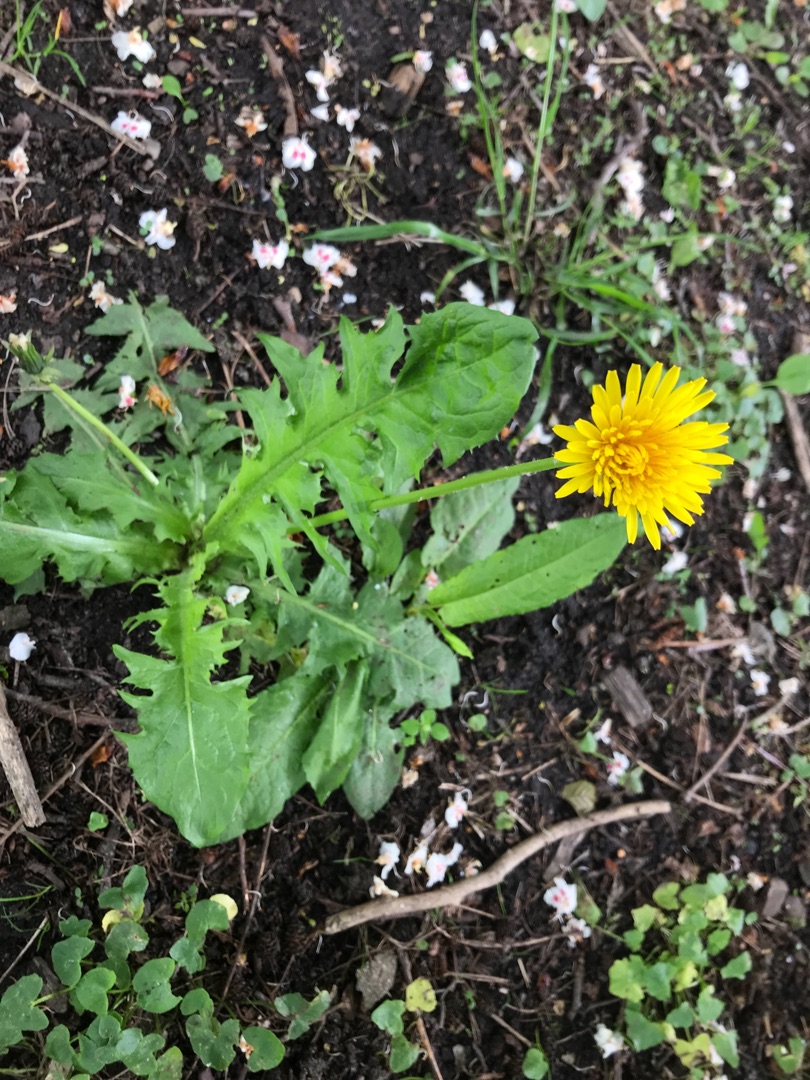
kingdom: Plantae
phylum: Tracheophyta
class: Magnoliopsida
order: Asterales
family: Asteraceae
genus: Taraxacum
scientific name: Taraxacum sellandii
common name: Sellands vejmælkebøtte
